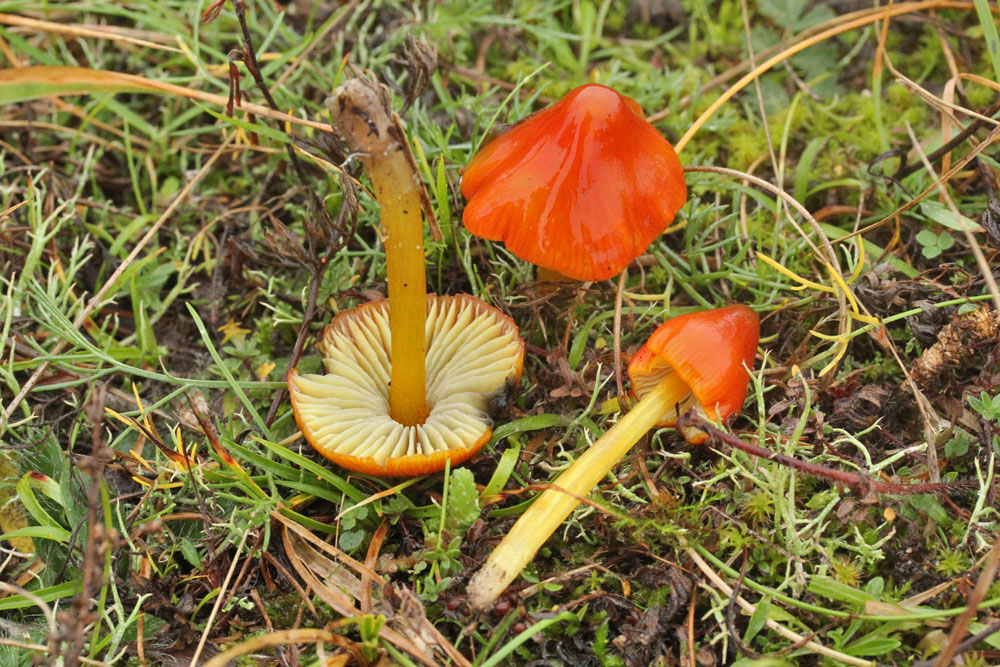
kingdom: Fungi
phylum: Basidiomycota
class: Agaricomycetes
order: Agaricales
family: Hygrophoraceae
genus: Hygrocybe
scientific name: Hygrocybe conica
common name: kegle-vokshat
